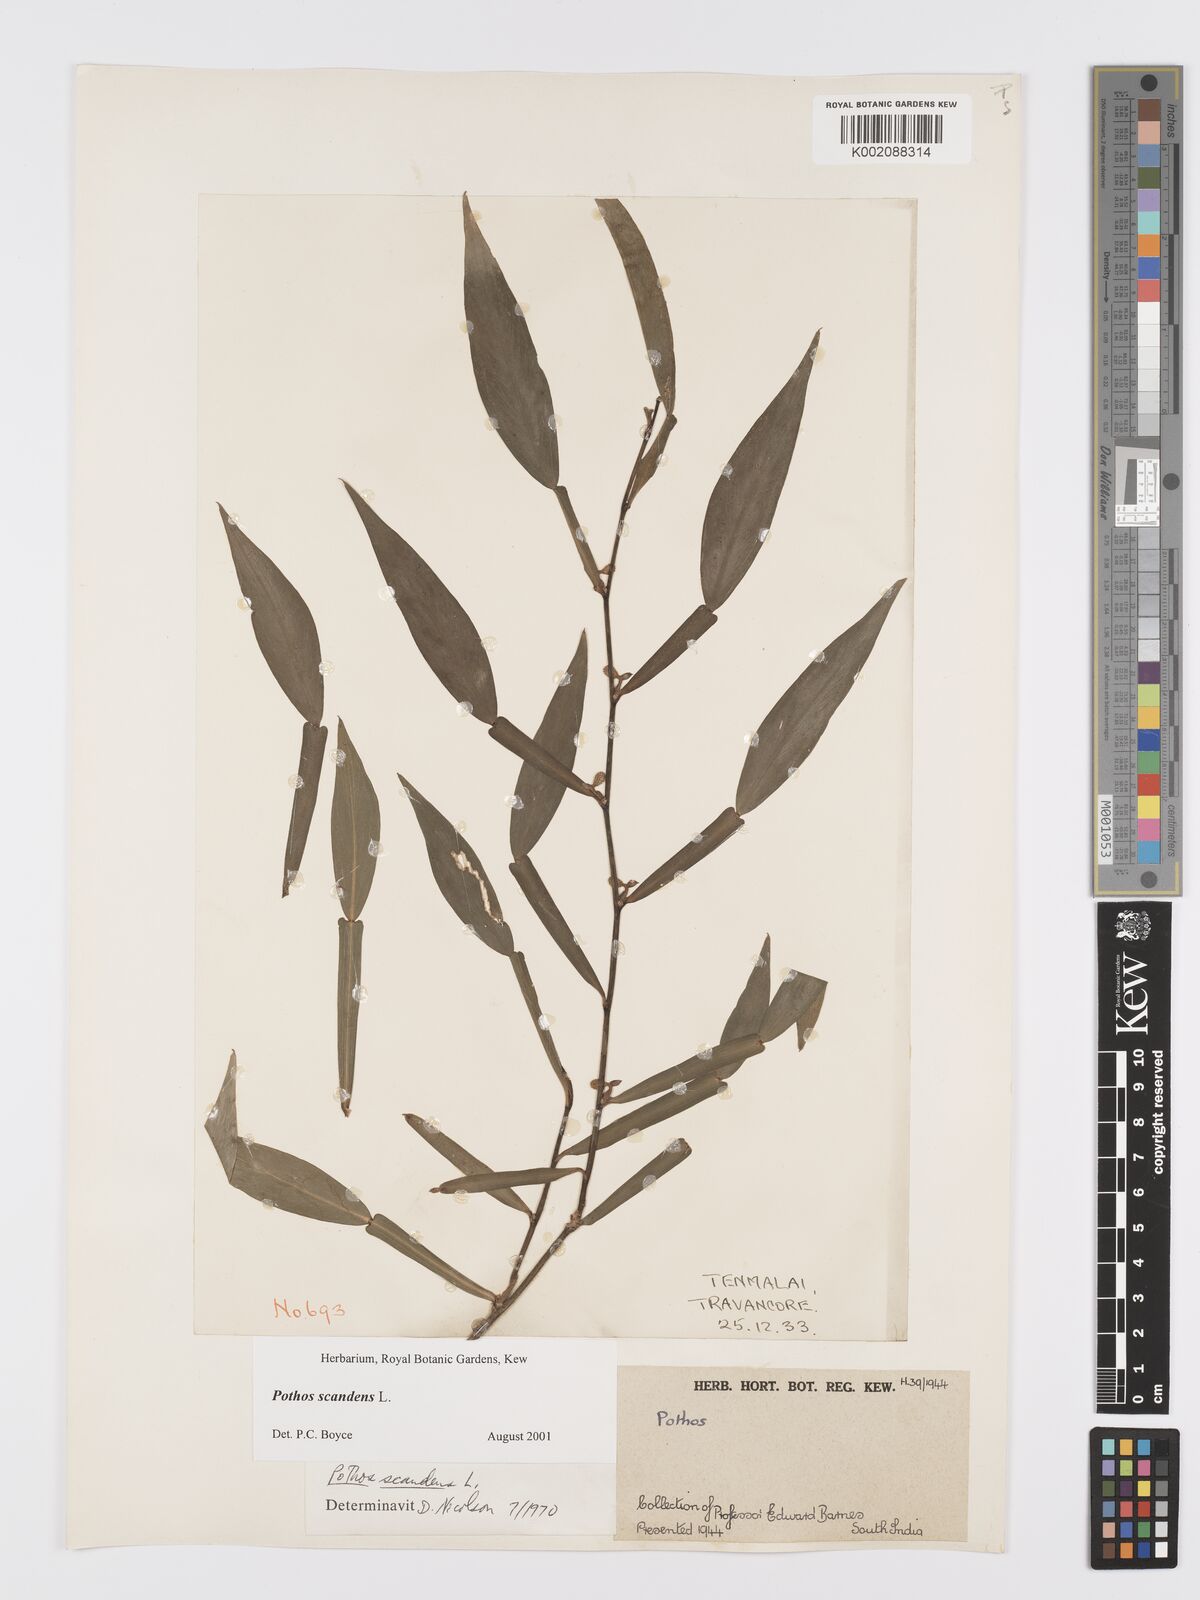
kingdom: Plantae
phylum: Tracheophyta
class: Liliopsida
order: Alismatales
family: Araceae
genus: Pothos
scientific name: Pothos scandens
